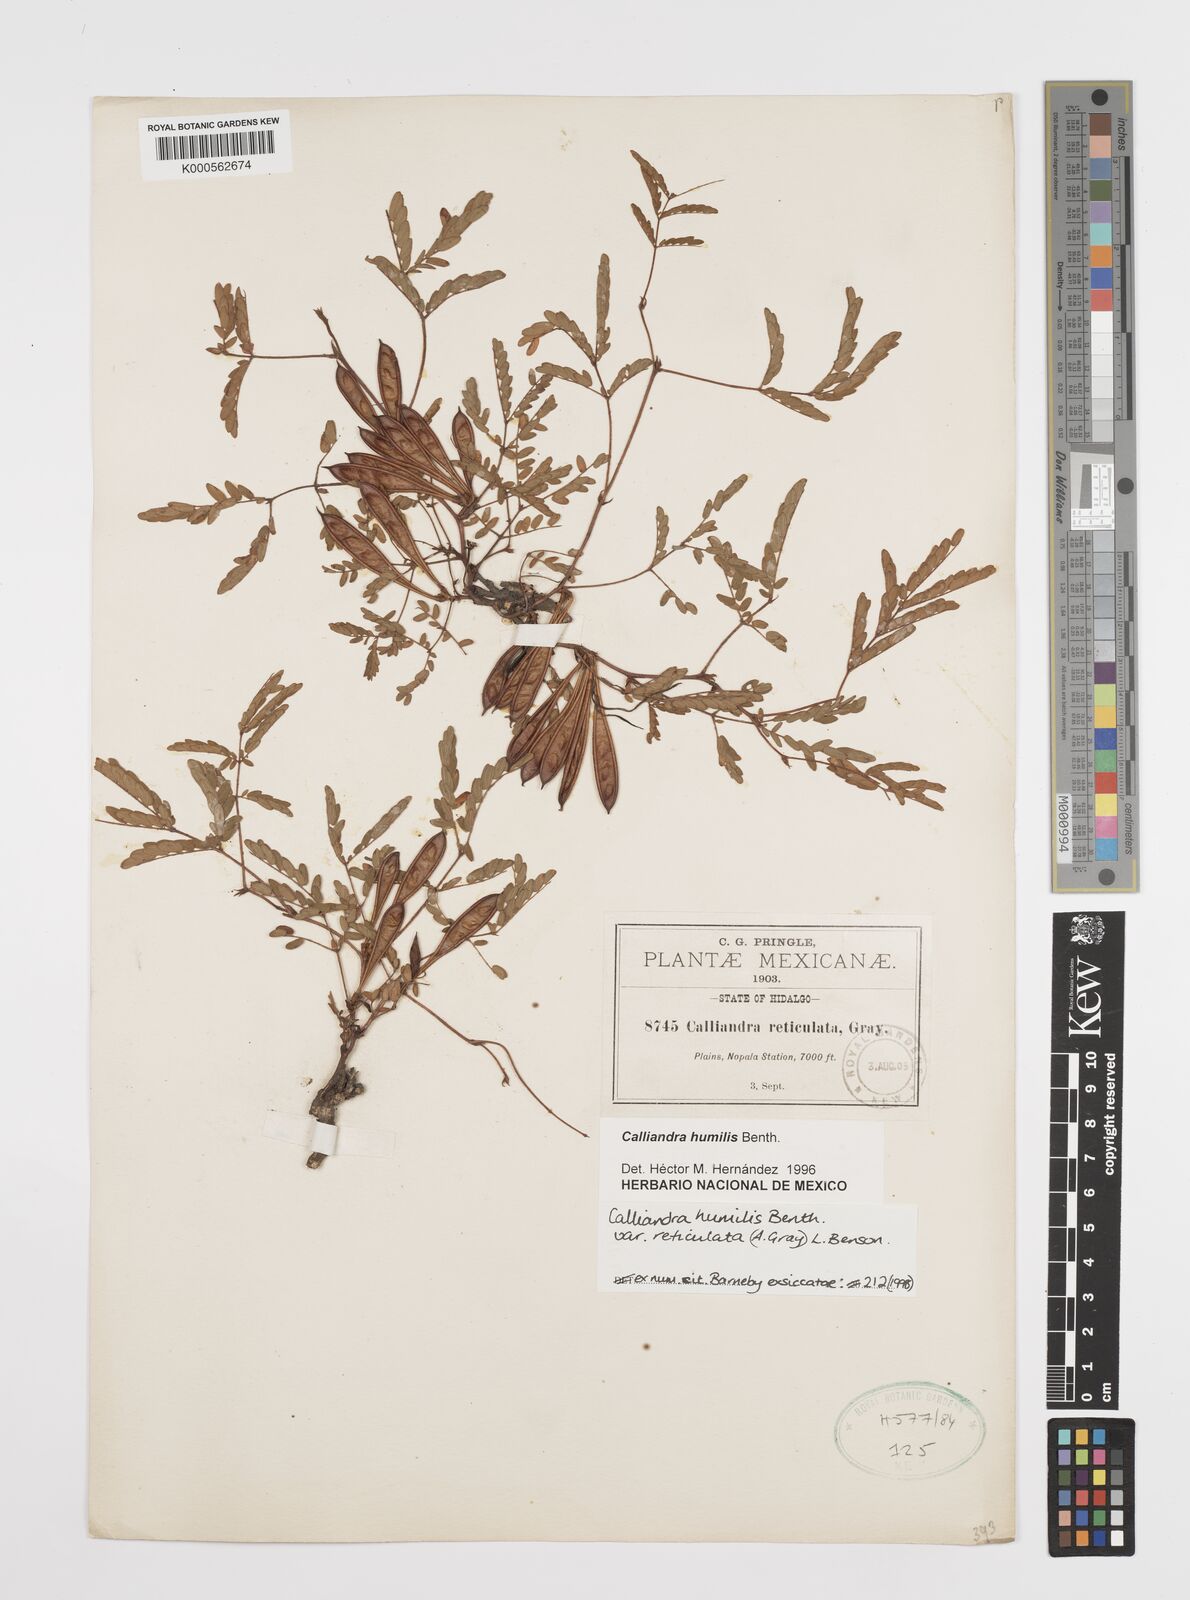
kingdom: Plantae
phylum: Tracheophyta
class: Magnoliopsida
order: Fabales
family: Fabaceae
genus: Calliandra
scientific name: Calliandra humilis
